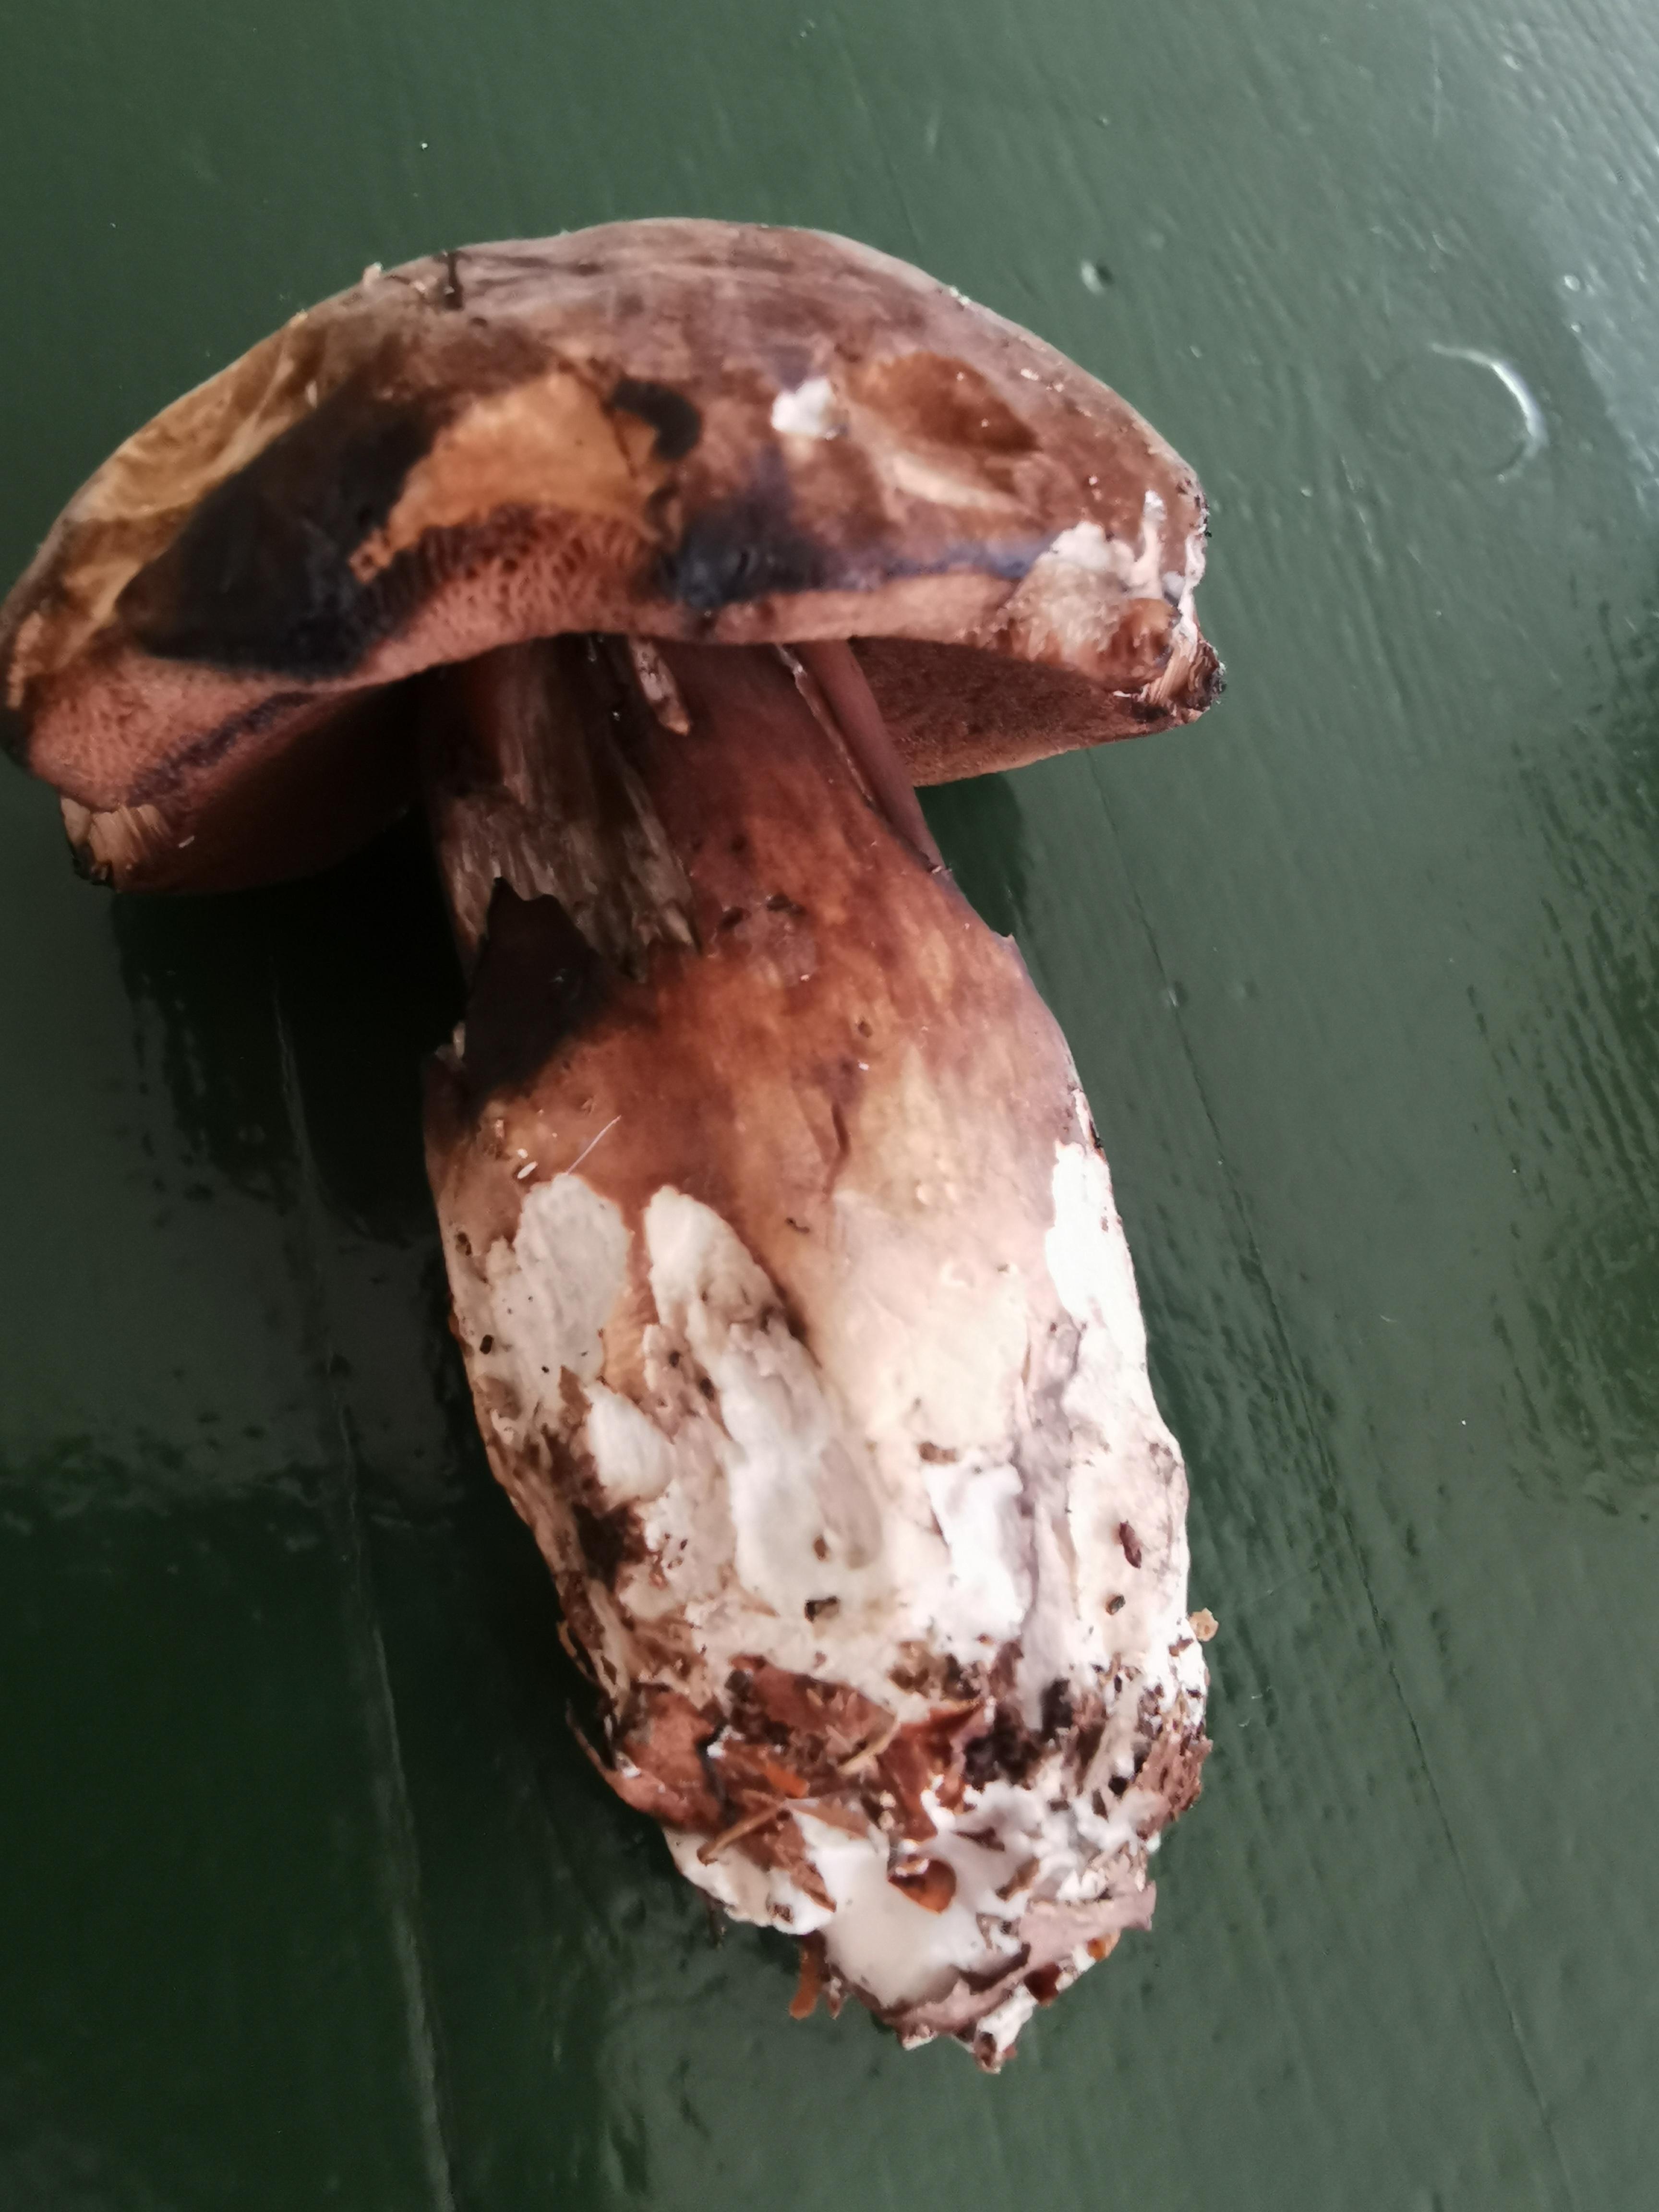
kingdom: Fungi
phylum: Basidiomycota
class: Agaricomycetes
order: Boletales
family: Boletaceae
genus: Porphyrellus
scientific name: Porphyrellus porphyrosporus
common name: sodrørhat
